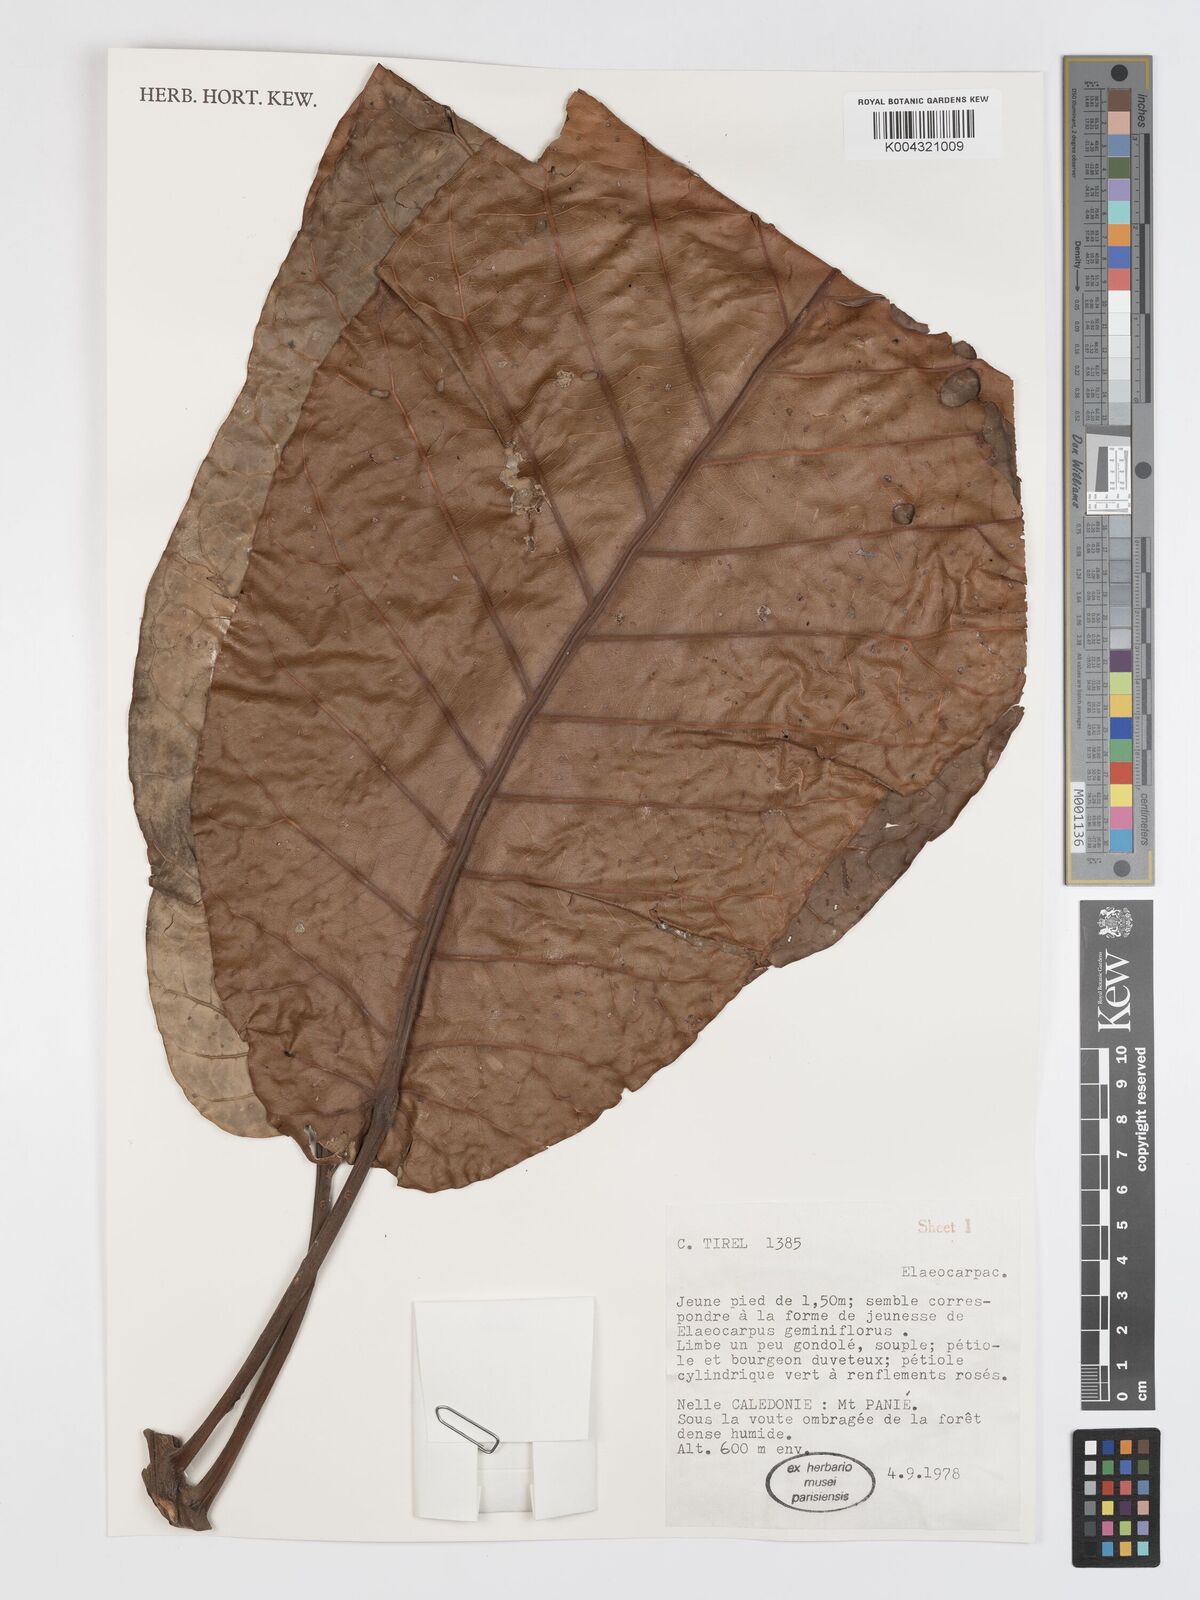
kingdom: Plantae
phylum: Tracheophyta
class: Magnoliopsida
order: Oxalidales
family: Elaeocarpaceae
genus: Sloanea
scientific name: Sloanea
